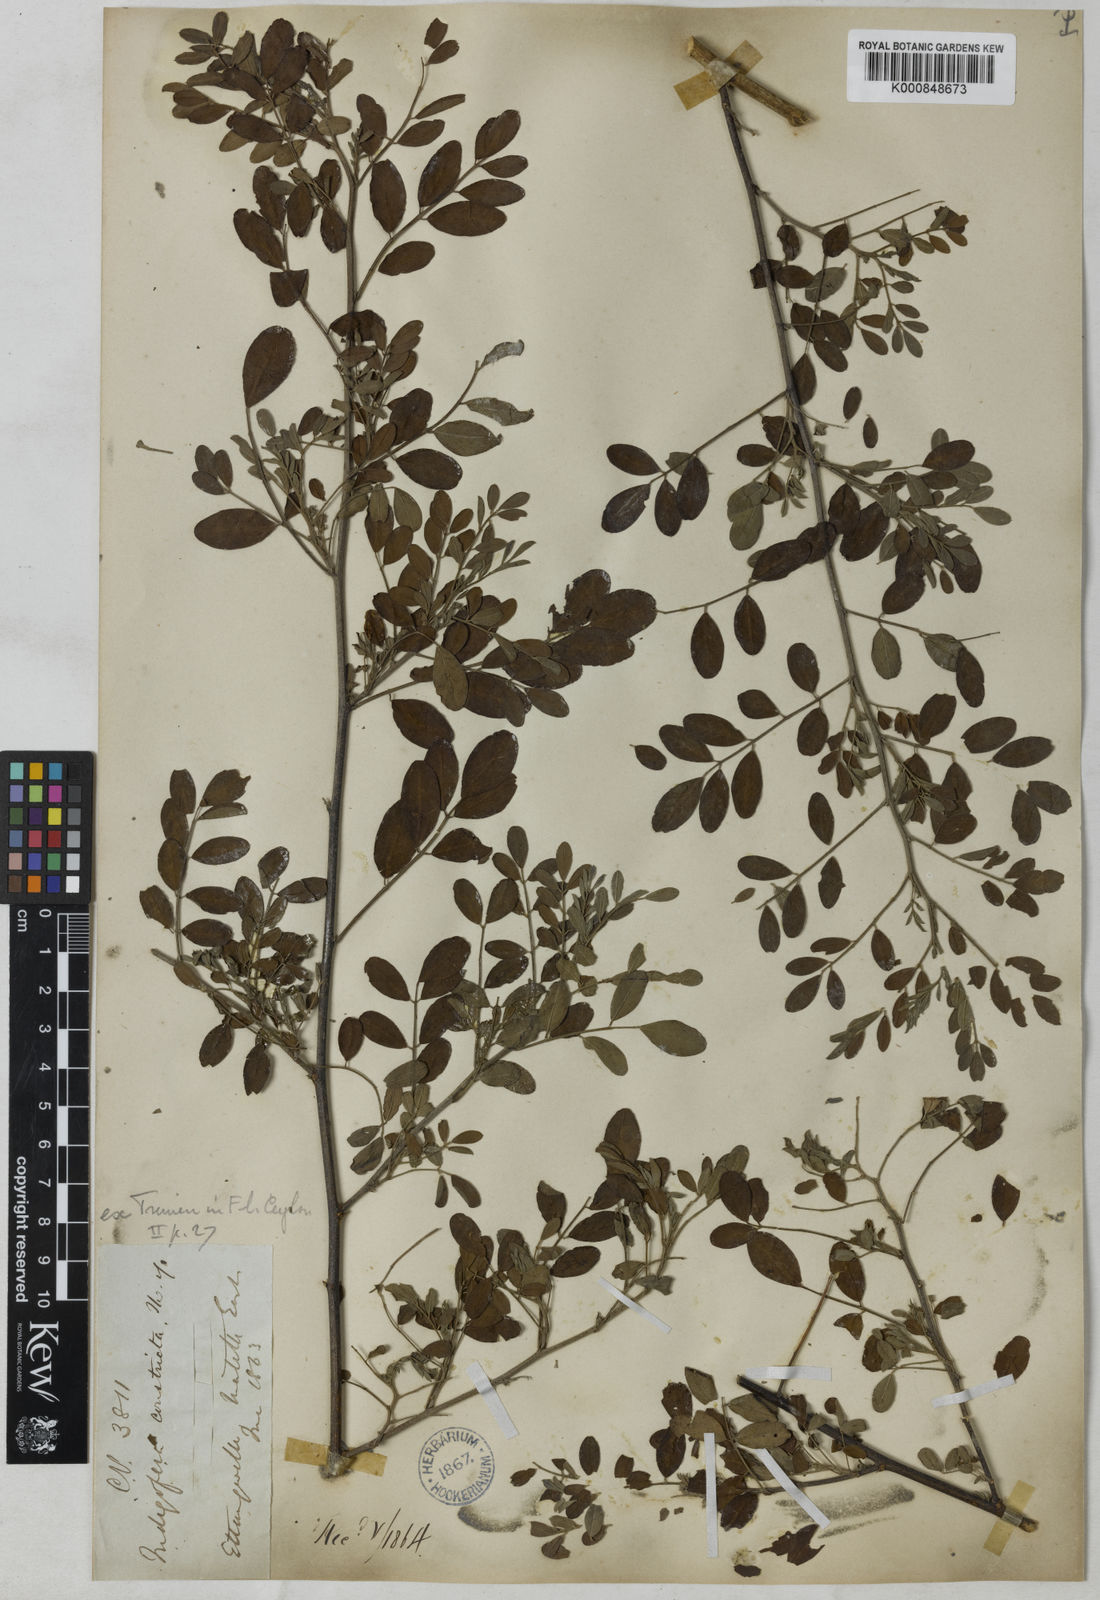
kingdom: Plantae
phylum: Tracheophyta
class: Magnoliopsida
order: Fabales
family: Fabaceae
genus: Indigofera
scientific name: Indigofera langlassei
